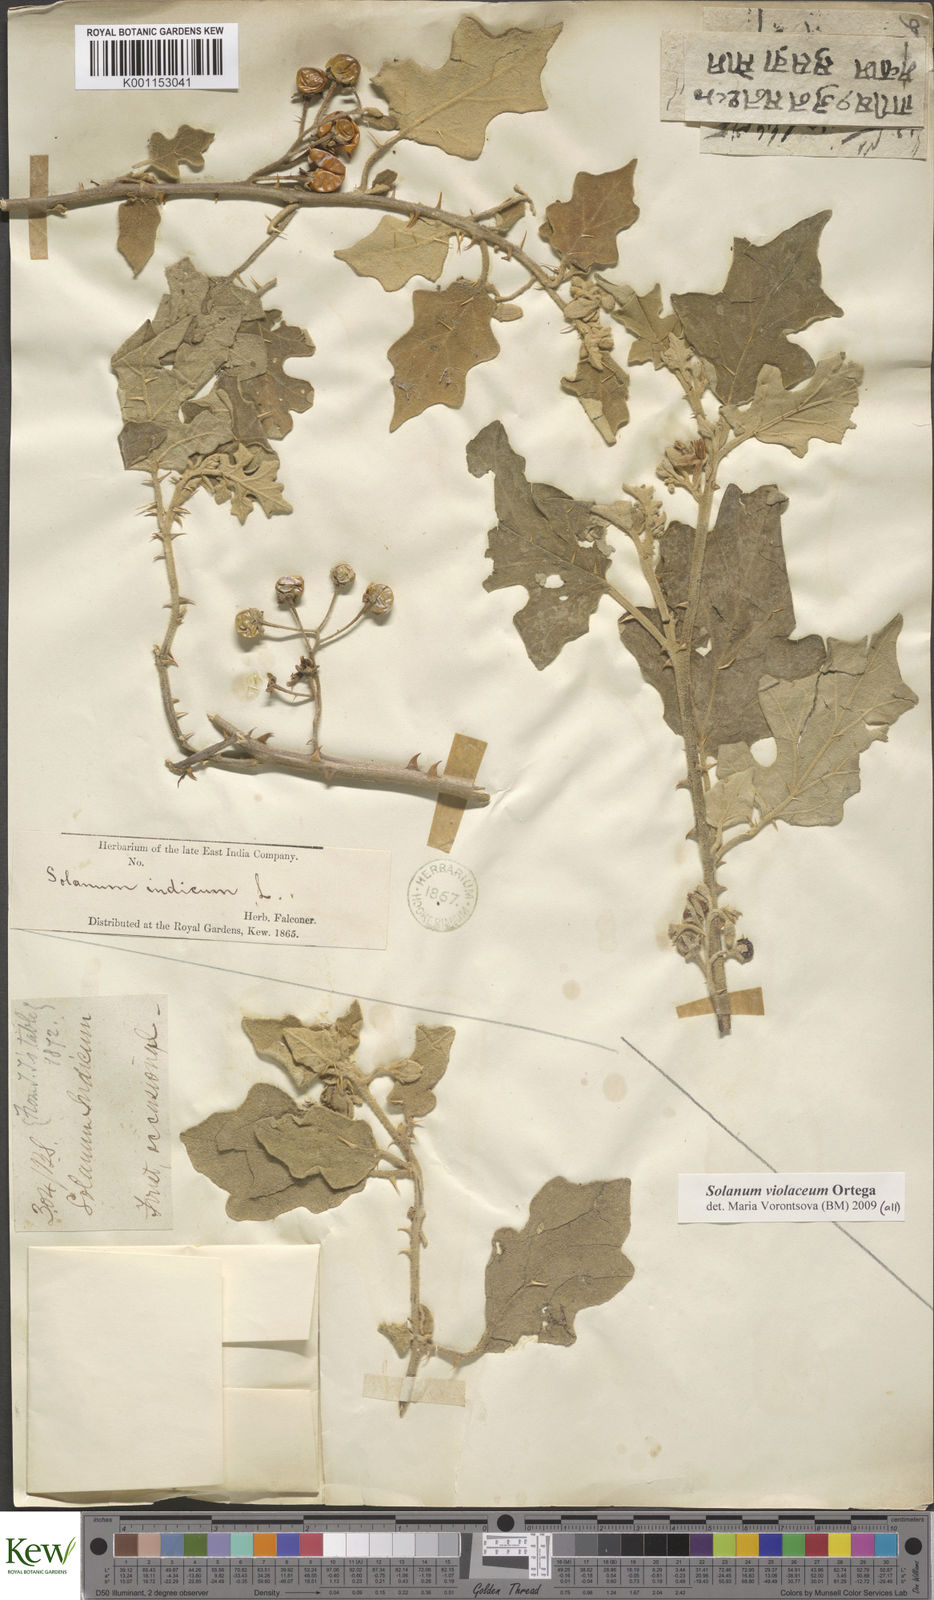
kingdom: Plantae
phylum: Tracheophyta
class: Magnoliopsida
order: Solanales
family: Solanaceae
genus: Solanum
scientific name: Solanum violaceum
